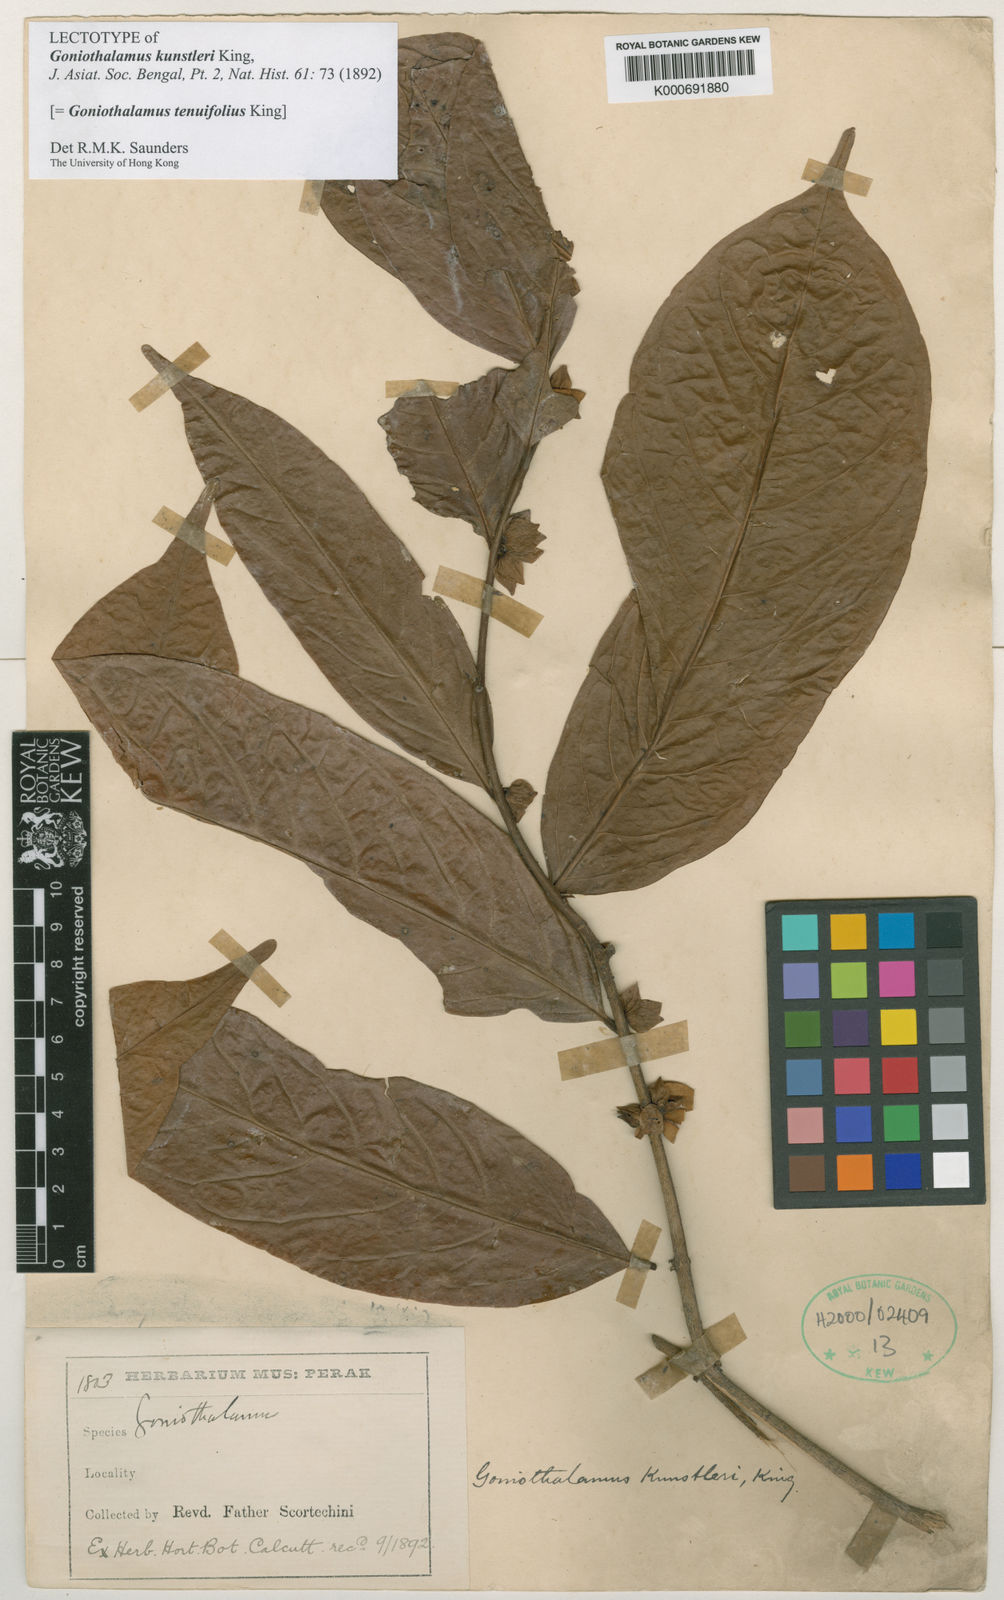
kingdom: Plantae
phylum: Tracheophyta
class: Magnoliopsida
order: Magnoliales
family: Annonaceae
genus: Goniothalamus
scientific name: Goniothalamus tenuifolius
